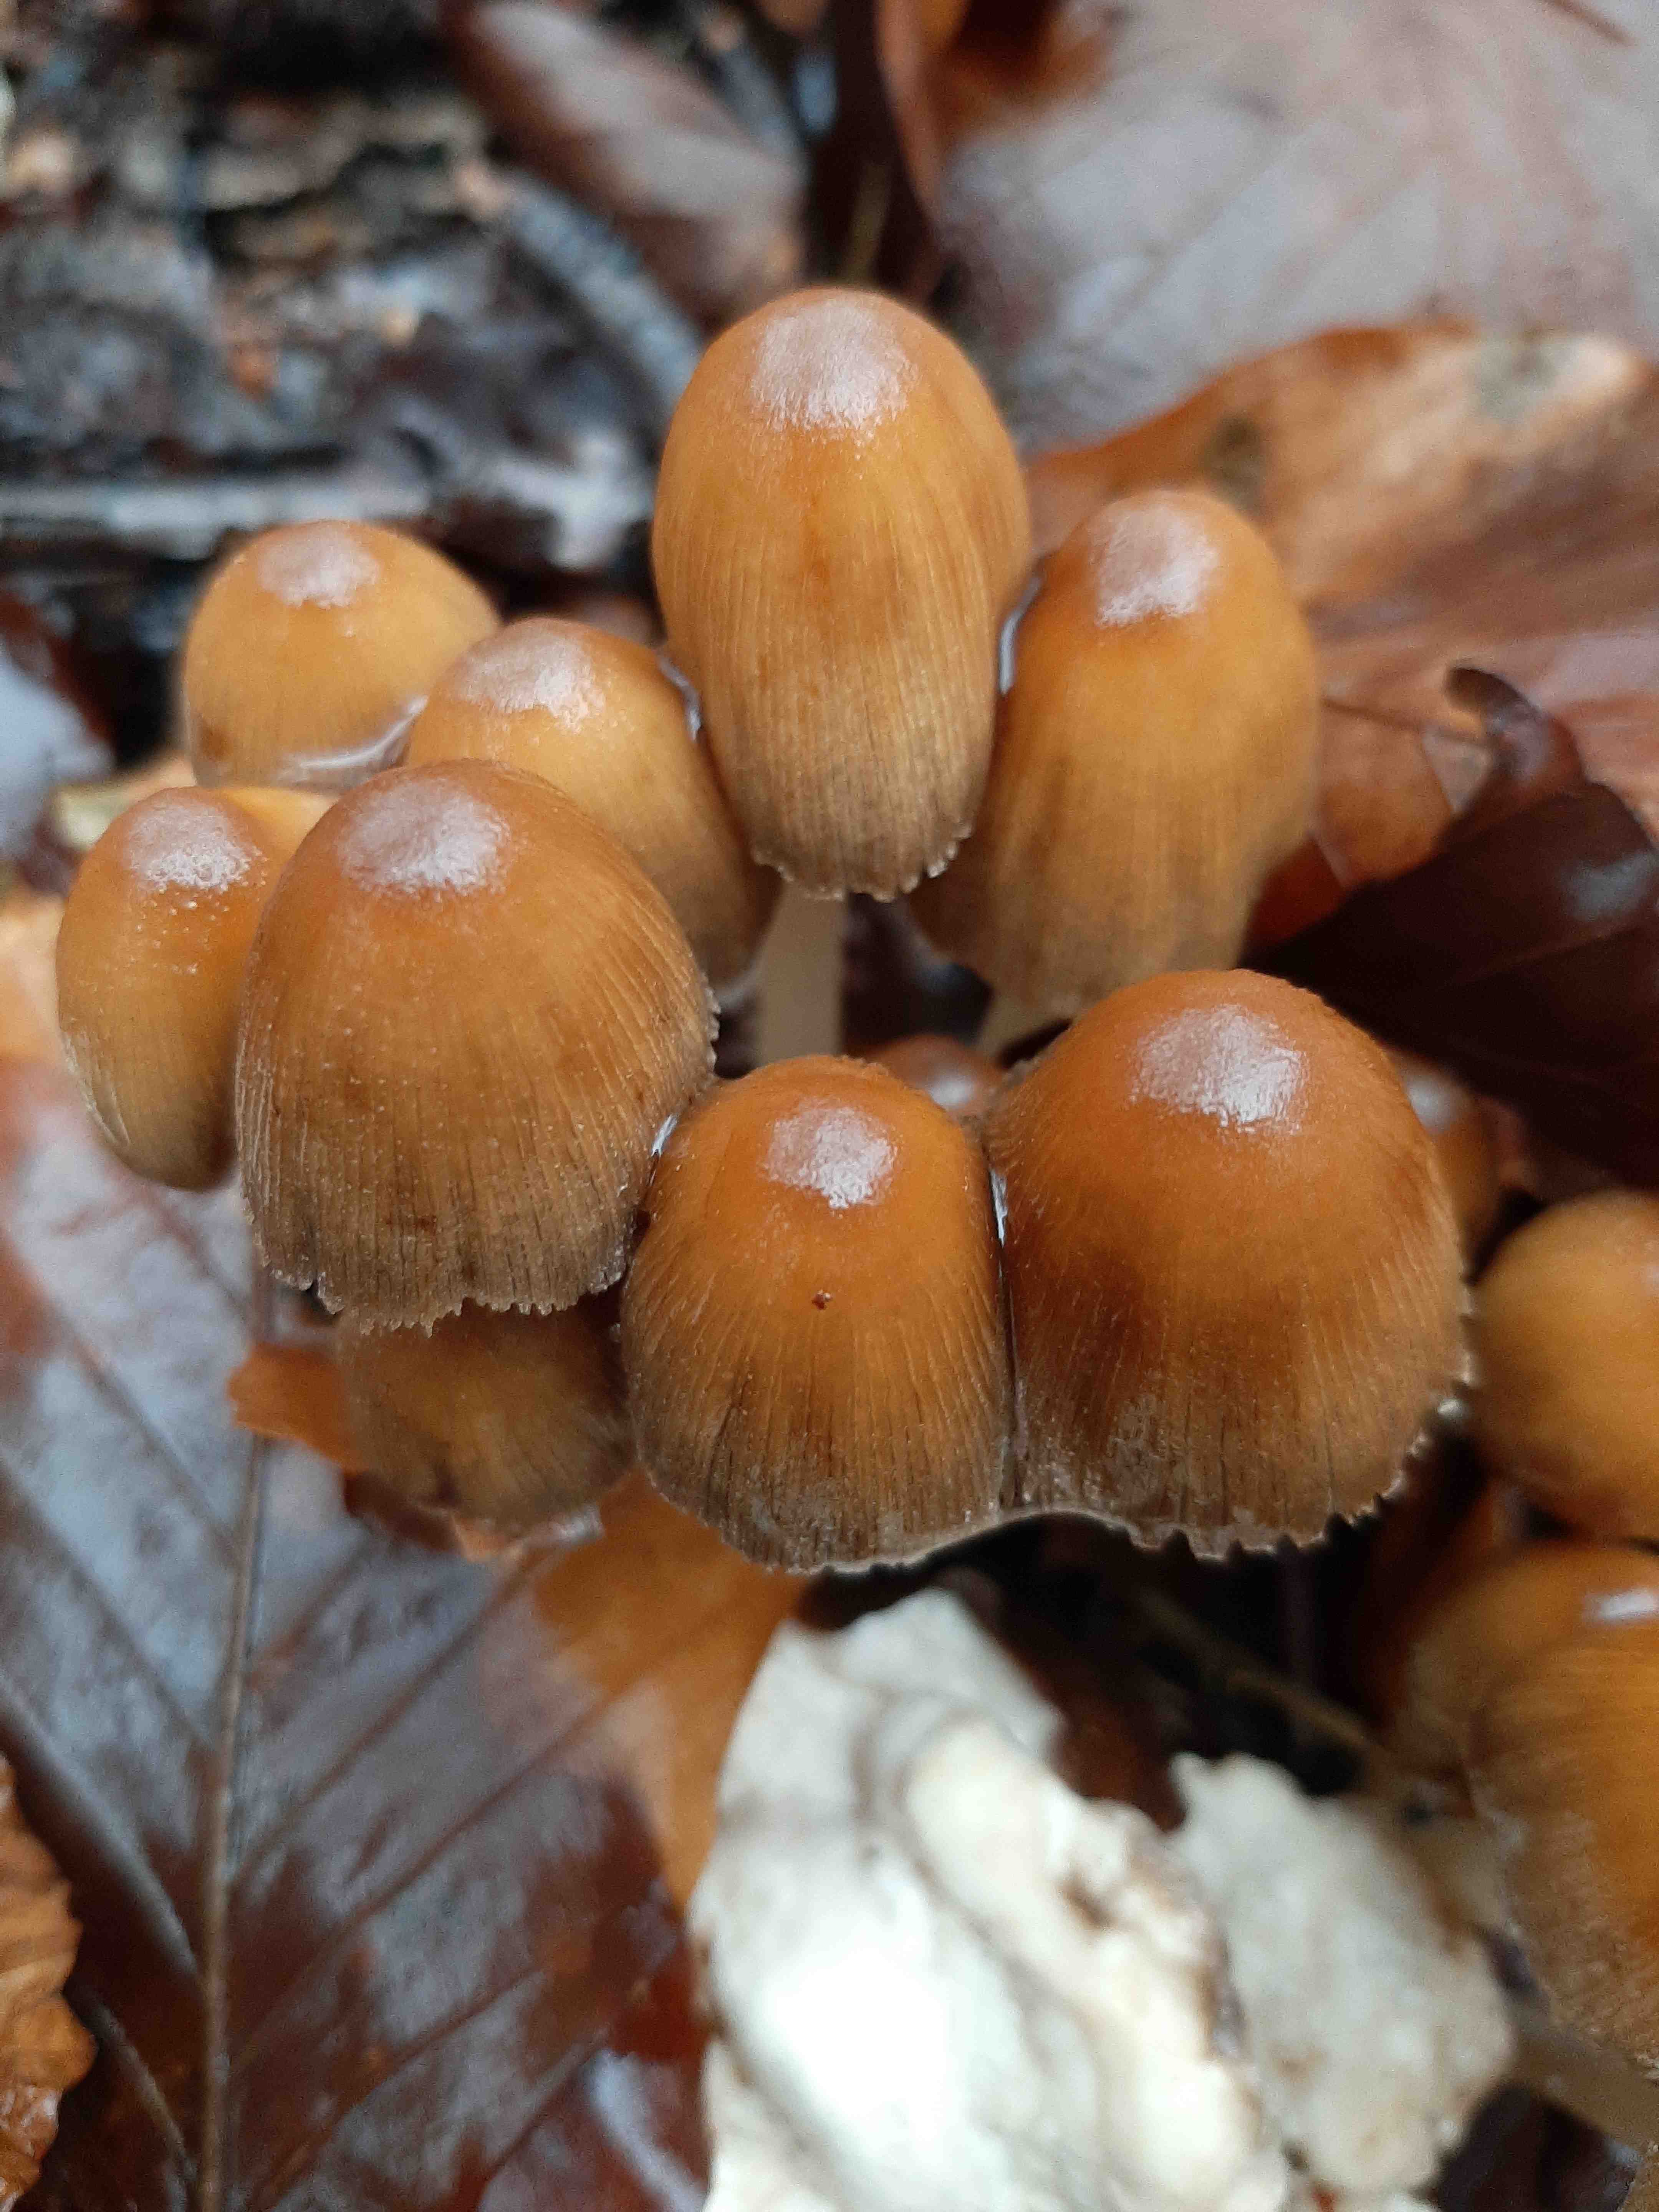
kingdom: Fungi
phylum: Basidiomycota
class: Agaricomycetes
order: Agaricales
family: Psathyrellaceae
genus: Coprinellus
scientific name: Coprinellus micaceus
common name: glimmer-blækhat
